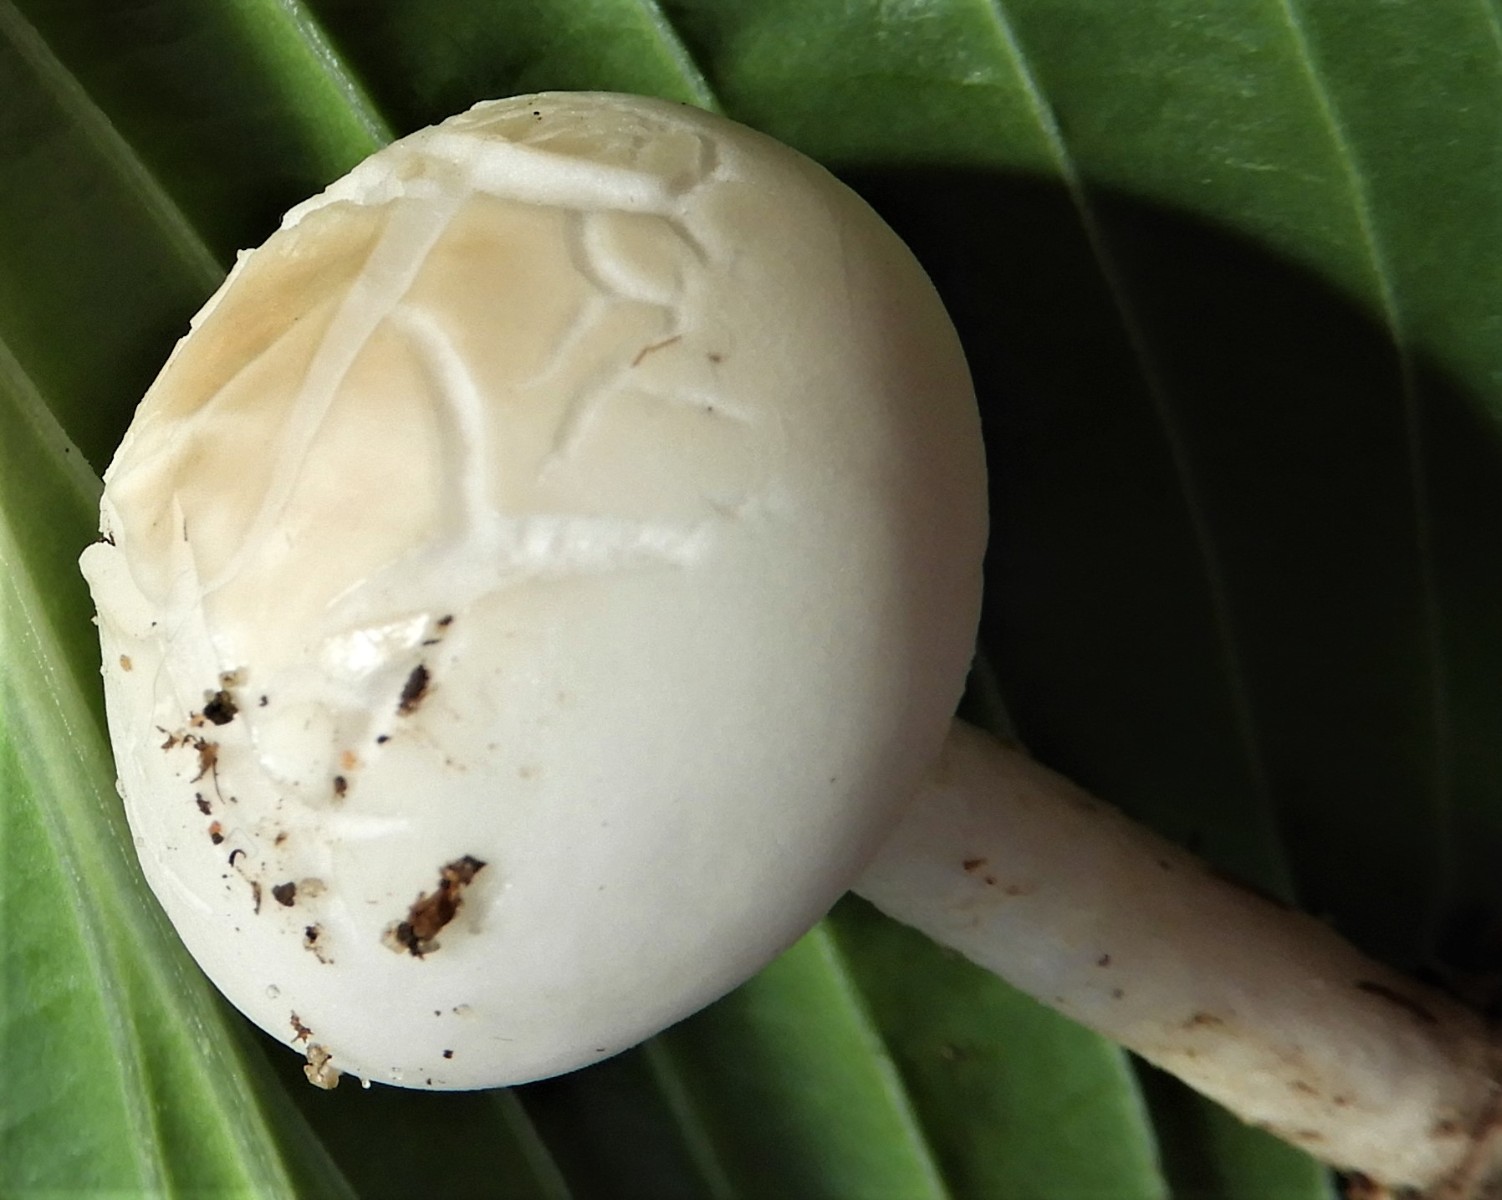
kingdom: Fungi
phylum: Basidiomycota
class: Agaricomycetes
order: Agaricales
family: Strophariaceae
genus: Agrocybe
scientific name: Agrocybe dura
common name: fastkødet agerhat
